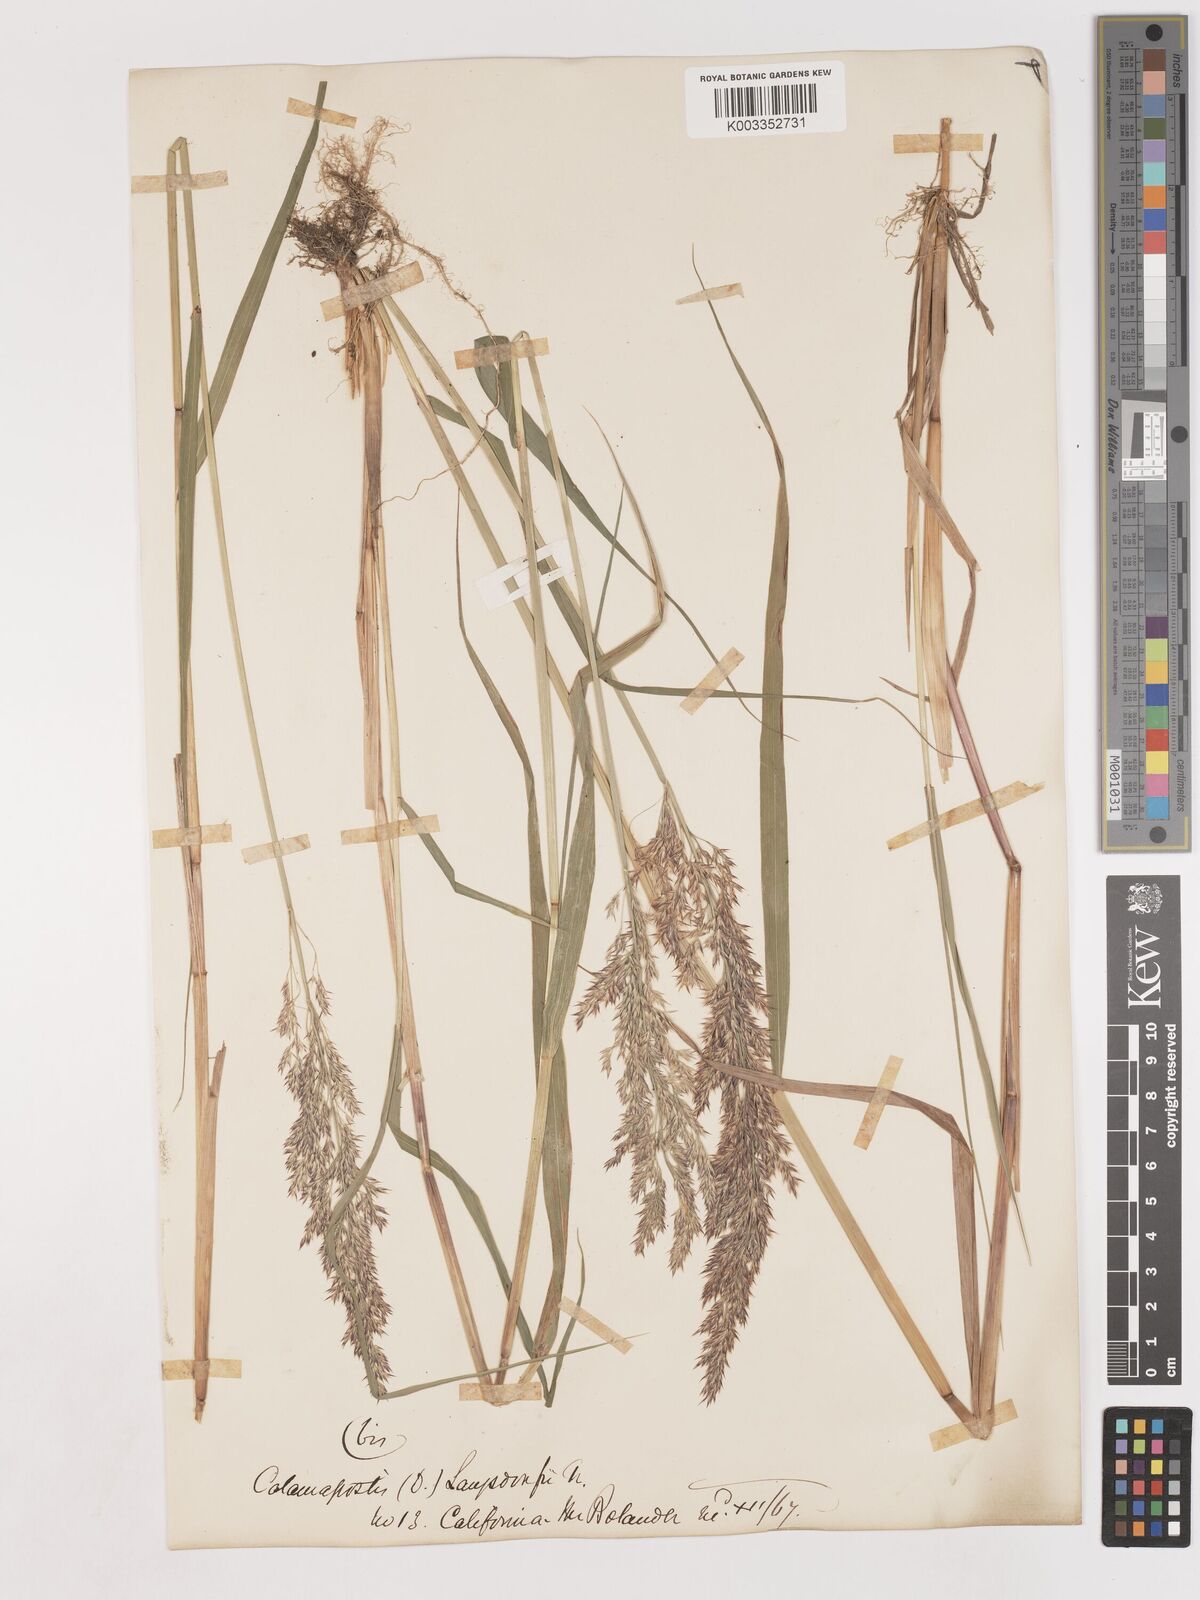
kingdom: Plantae
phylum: Tracheophyta
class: Liliopsida
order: Poales
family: Poaceae
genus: Calamagrostis
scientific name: Calamagrostis canadensis
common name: Canada bluejoint
